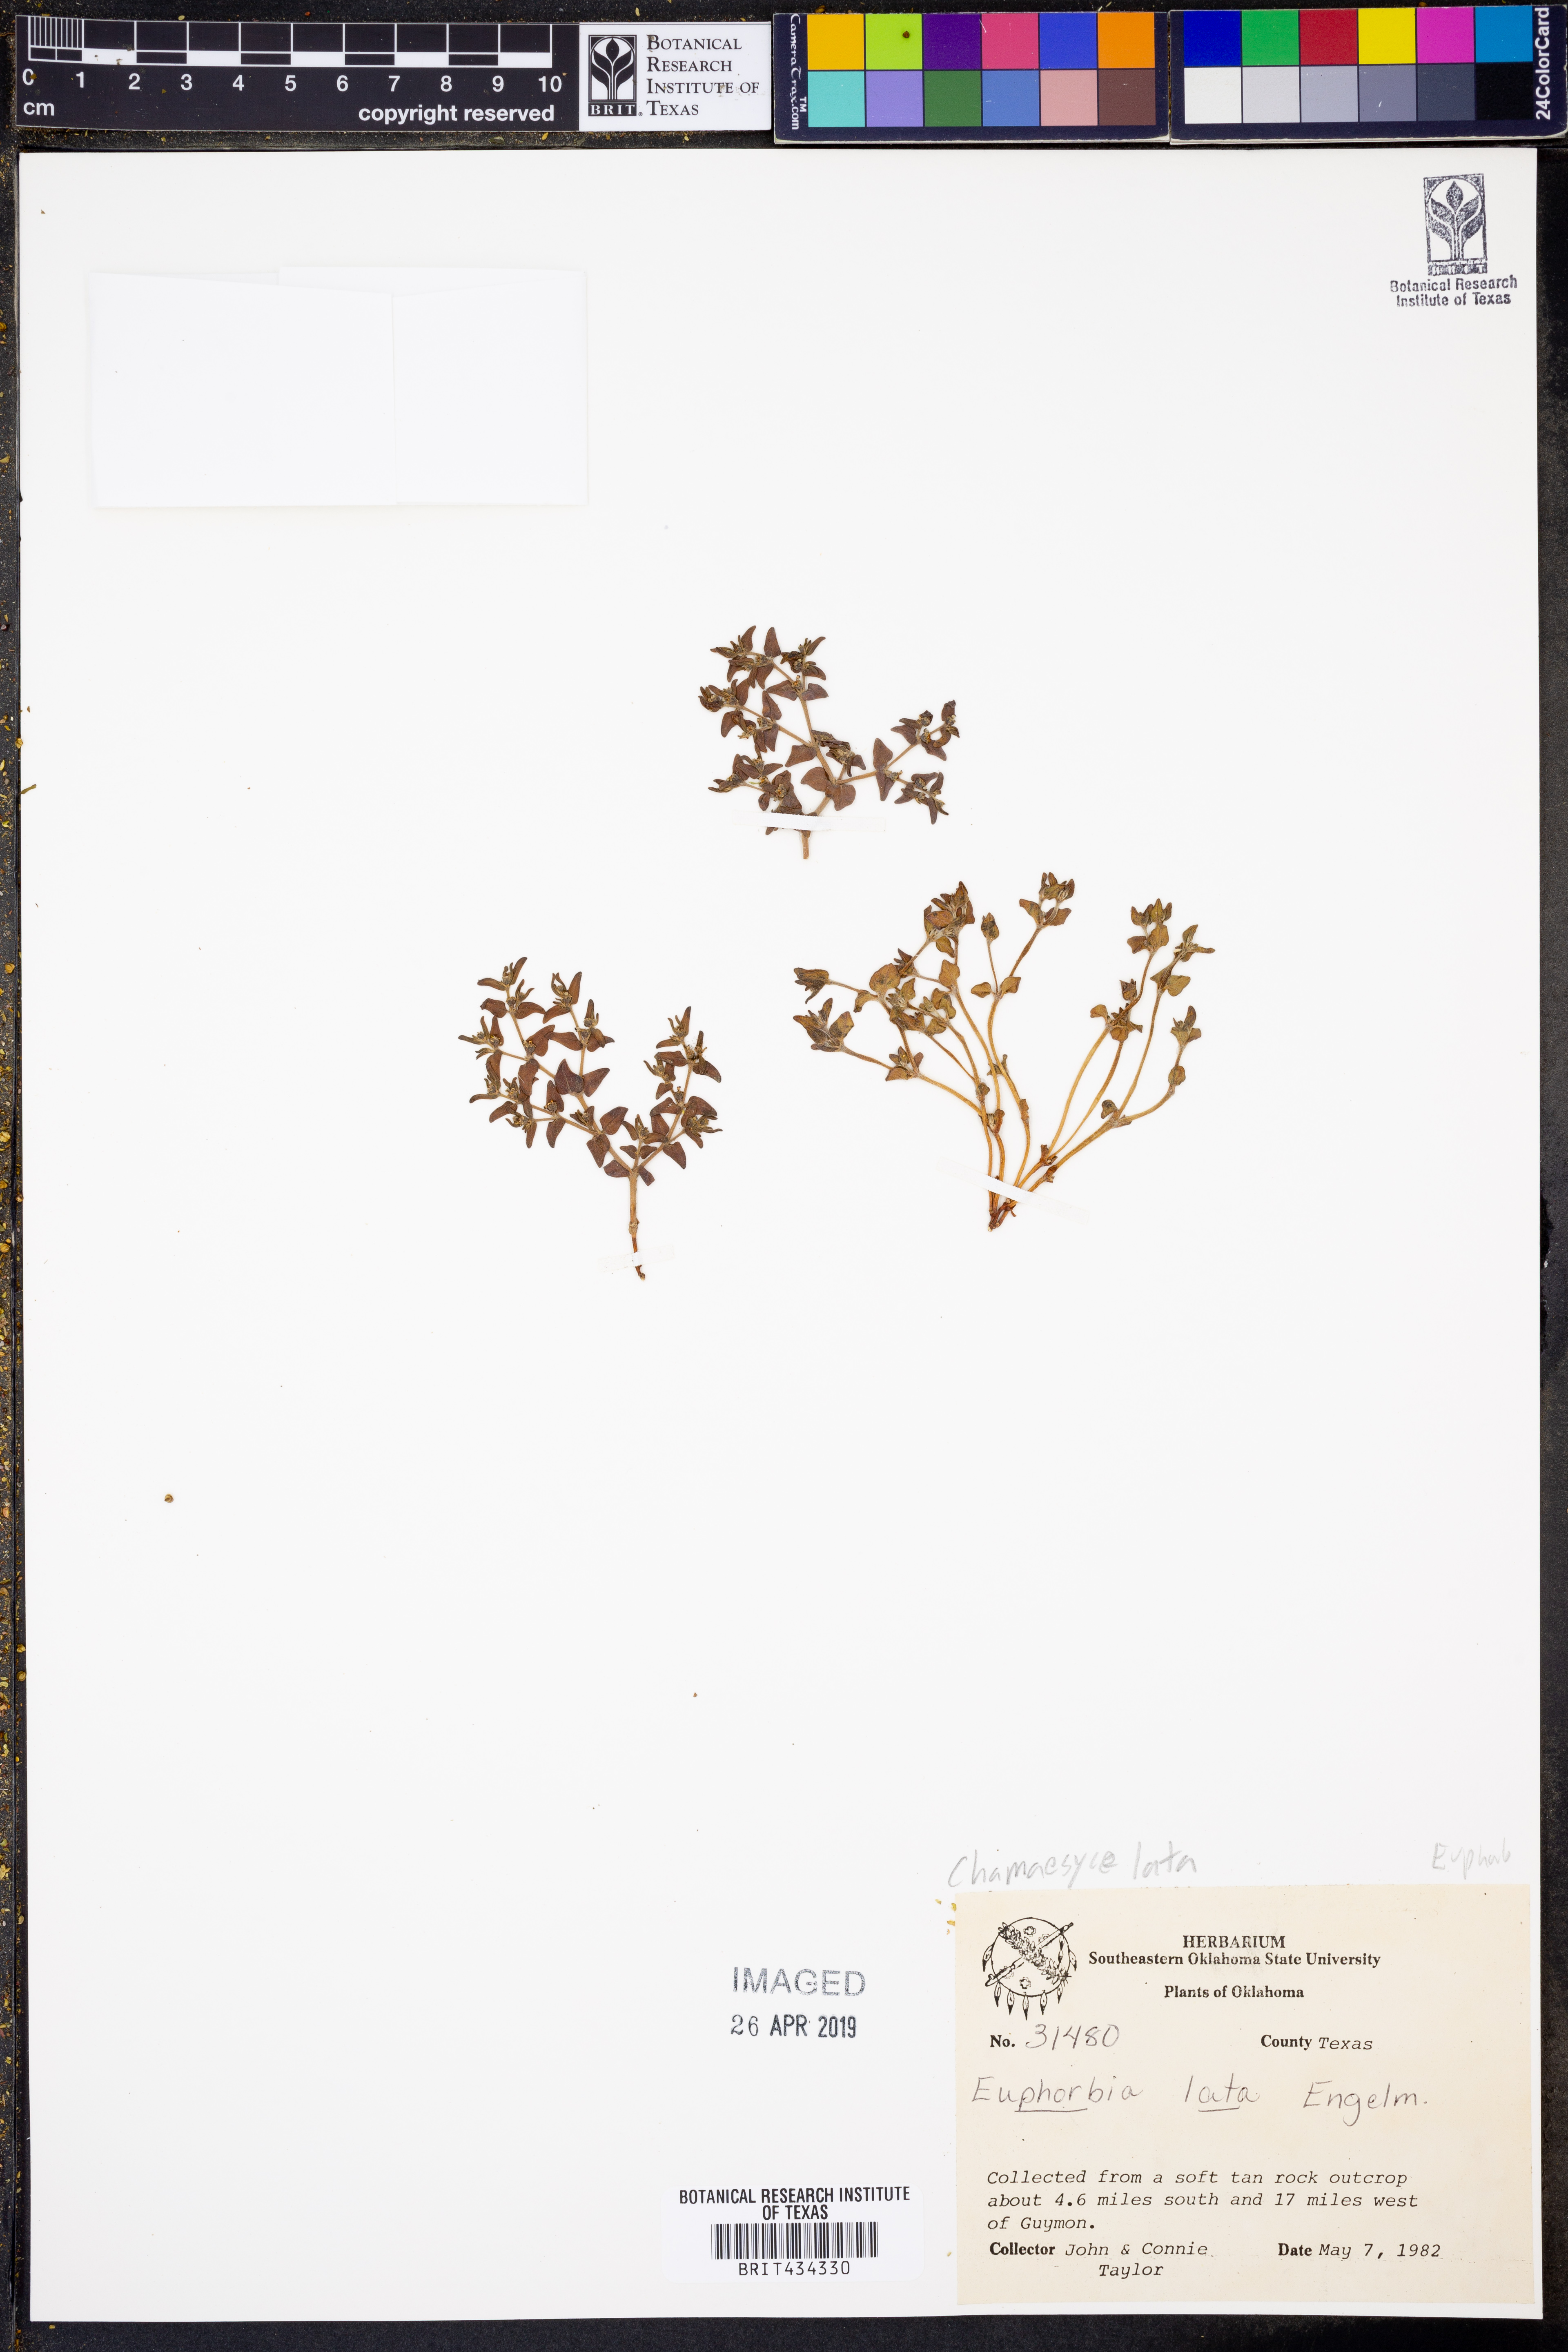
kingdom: Plantae
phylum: Tracheophyta
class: Magnoliopsida
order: Malpighiales
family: Euphorbiaceae
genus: Euphorbia
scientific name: Euphorbia lata
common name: Hoary euphorbia
